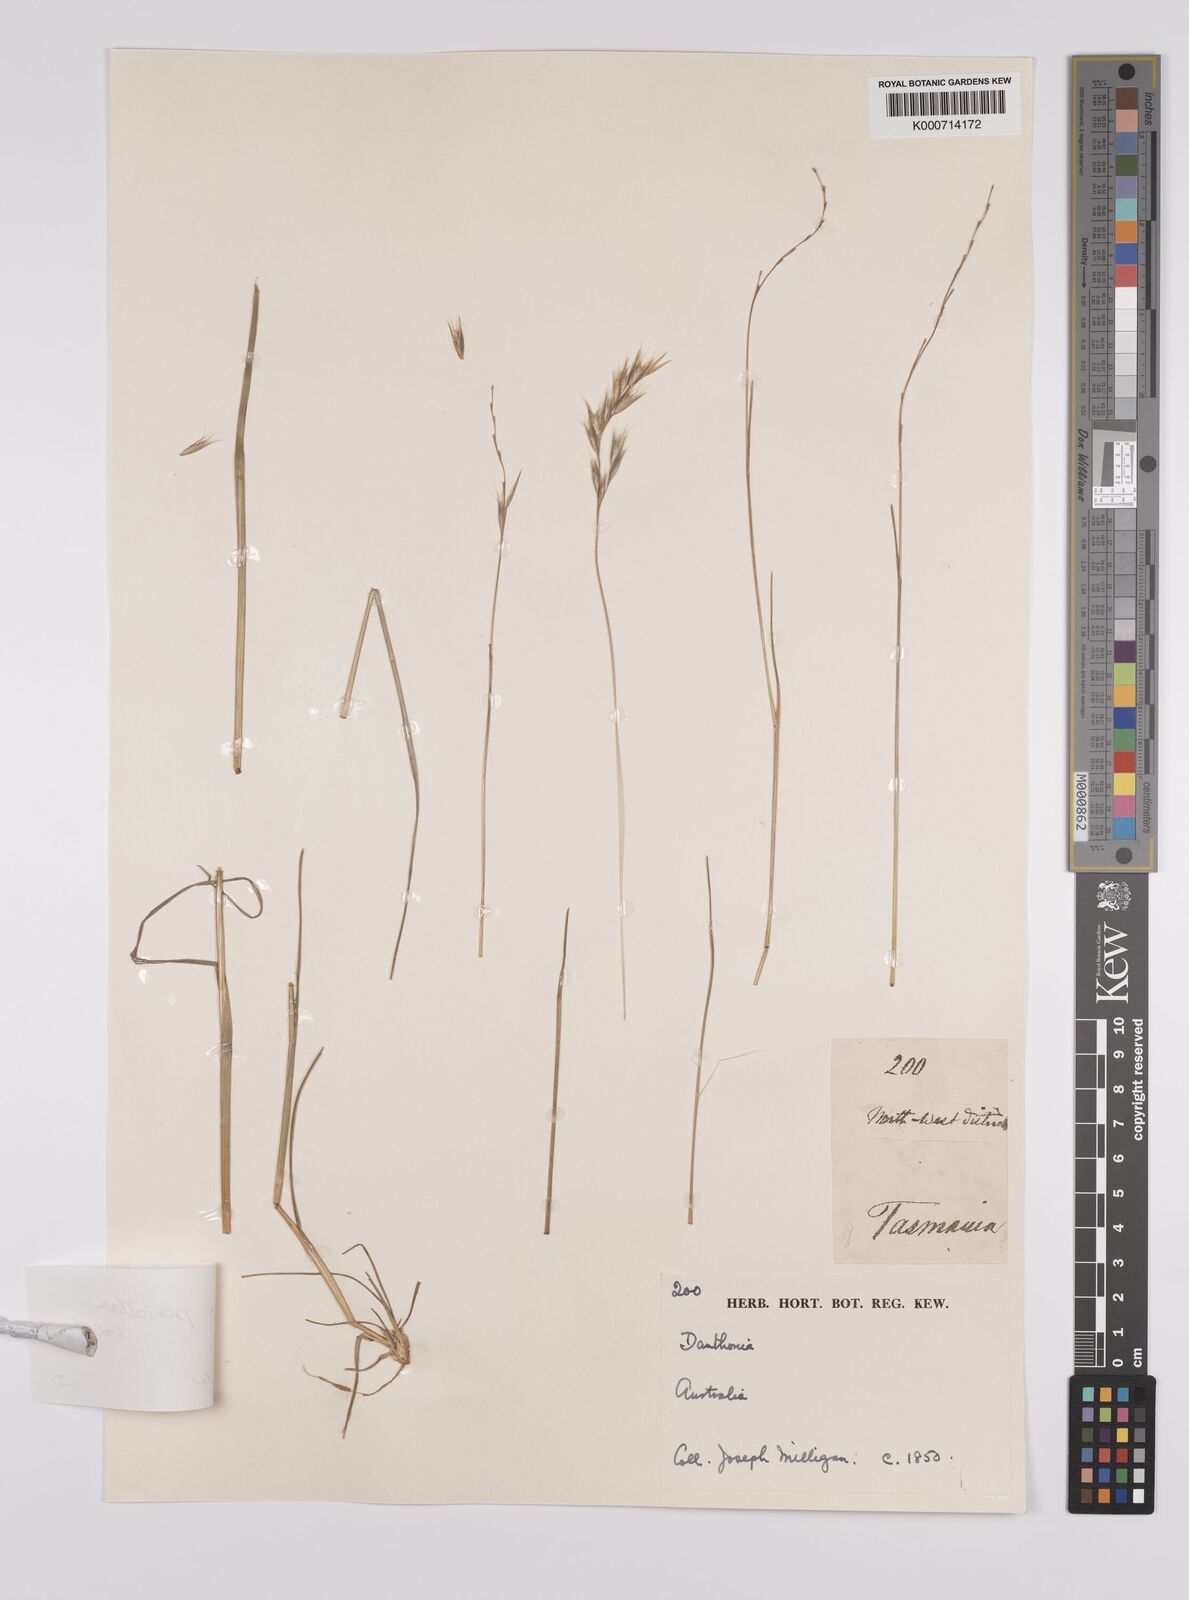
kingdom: Plantae
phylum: Tracheophyta
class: Liliopsida
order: Poales
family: Poaceae
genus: Rytidosperma
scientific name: Rytidosperma
